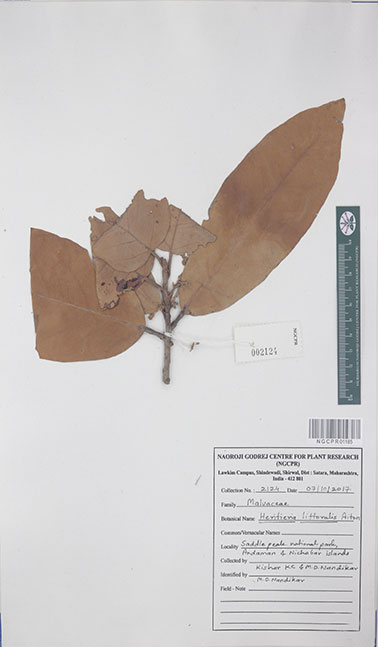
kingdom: Plantae
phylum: Tracheophyta
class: Magnoliopsida
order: Malvales
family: Malvaceae
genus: Heritiera
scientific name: Heritiera littoralis
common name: Looking-glass mangrove
